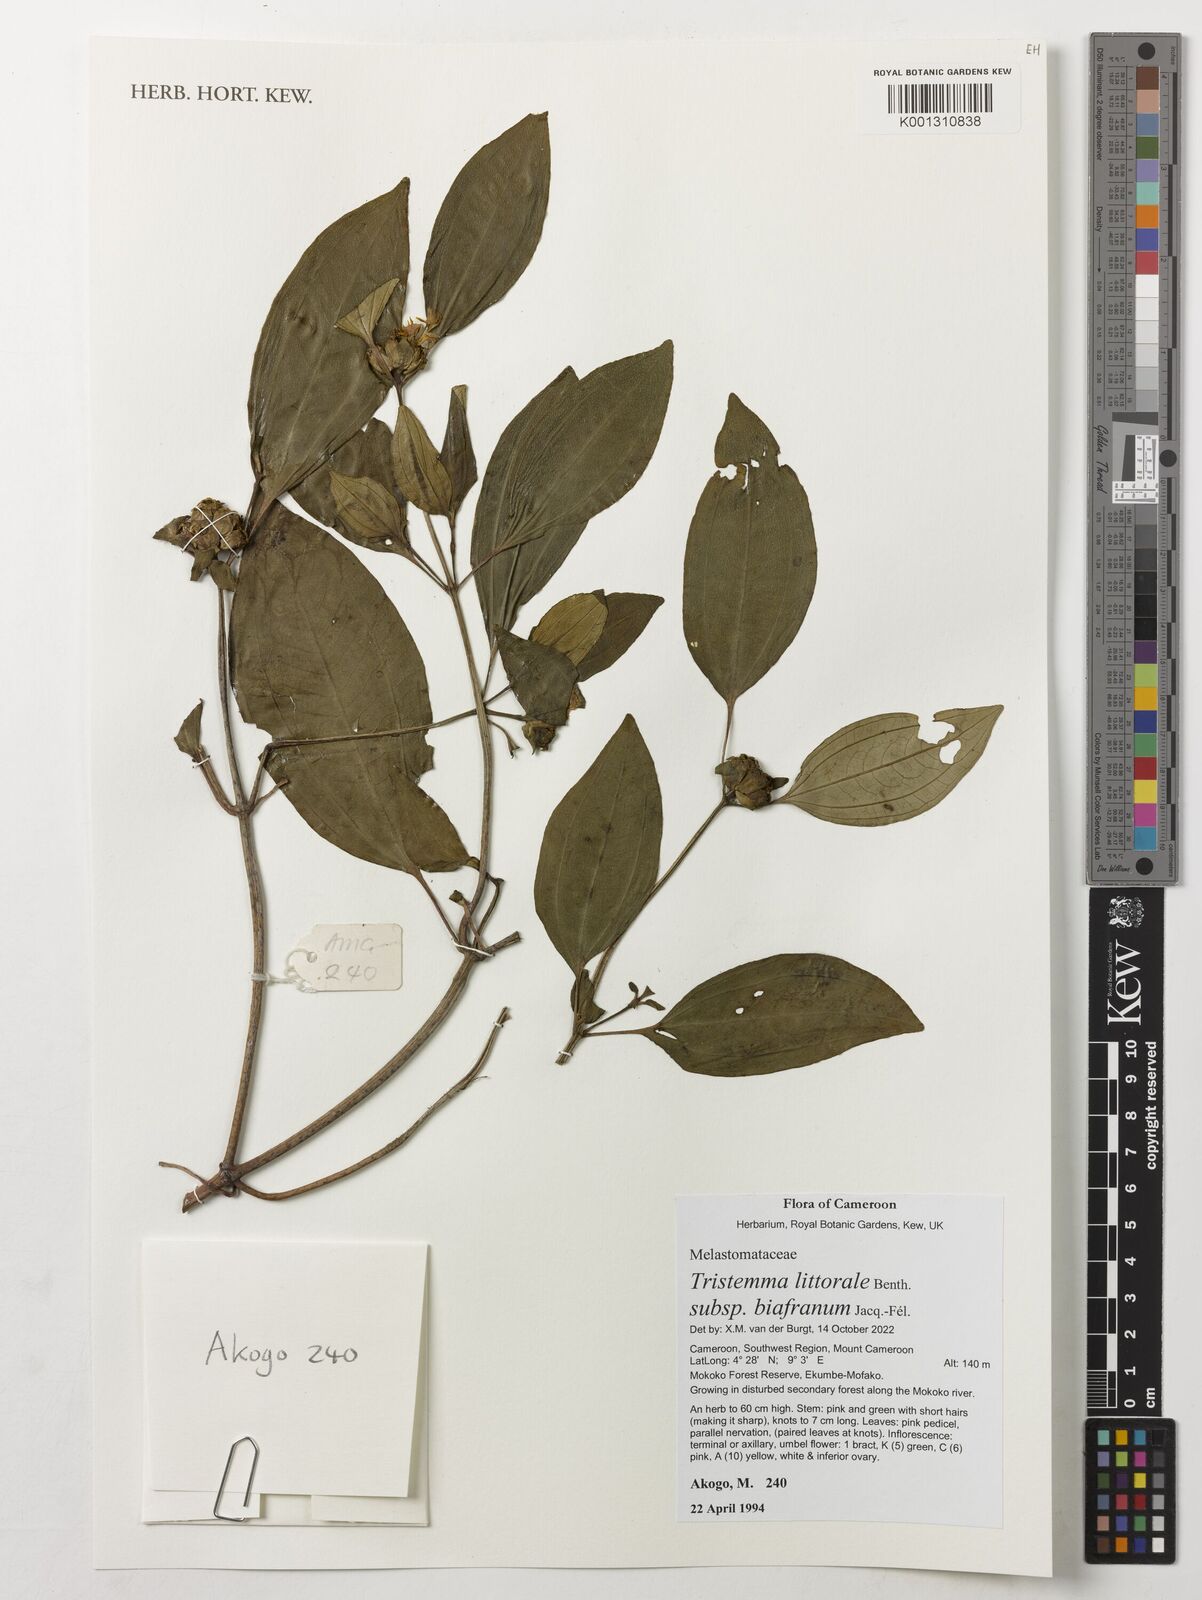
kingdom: Plantae
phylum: Tracheophyta
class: Magnoliopsida
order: Myrtales
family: Melastomataceae
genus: Tristemma
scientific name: Tristemma littorale
